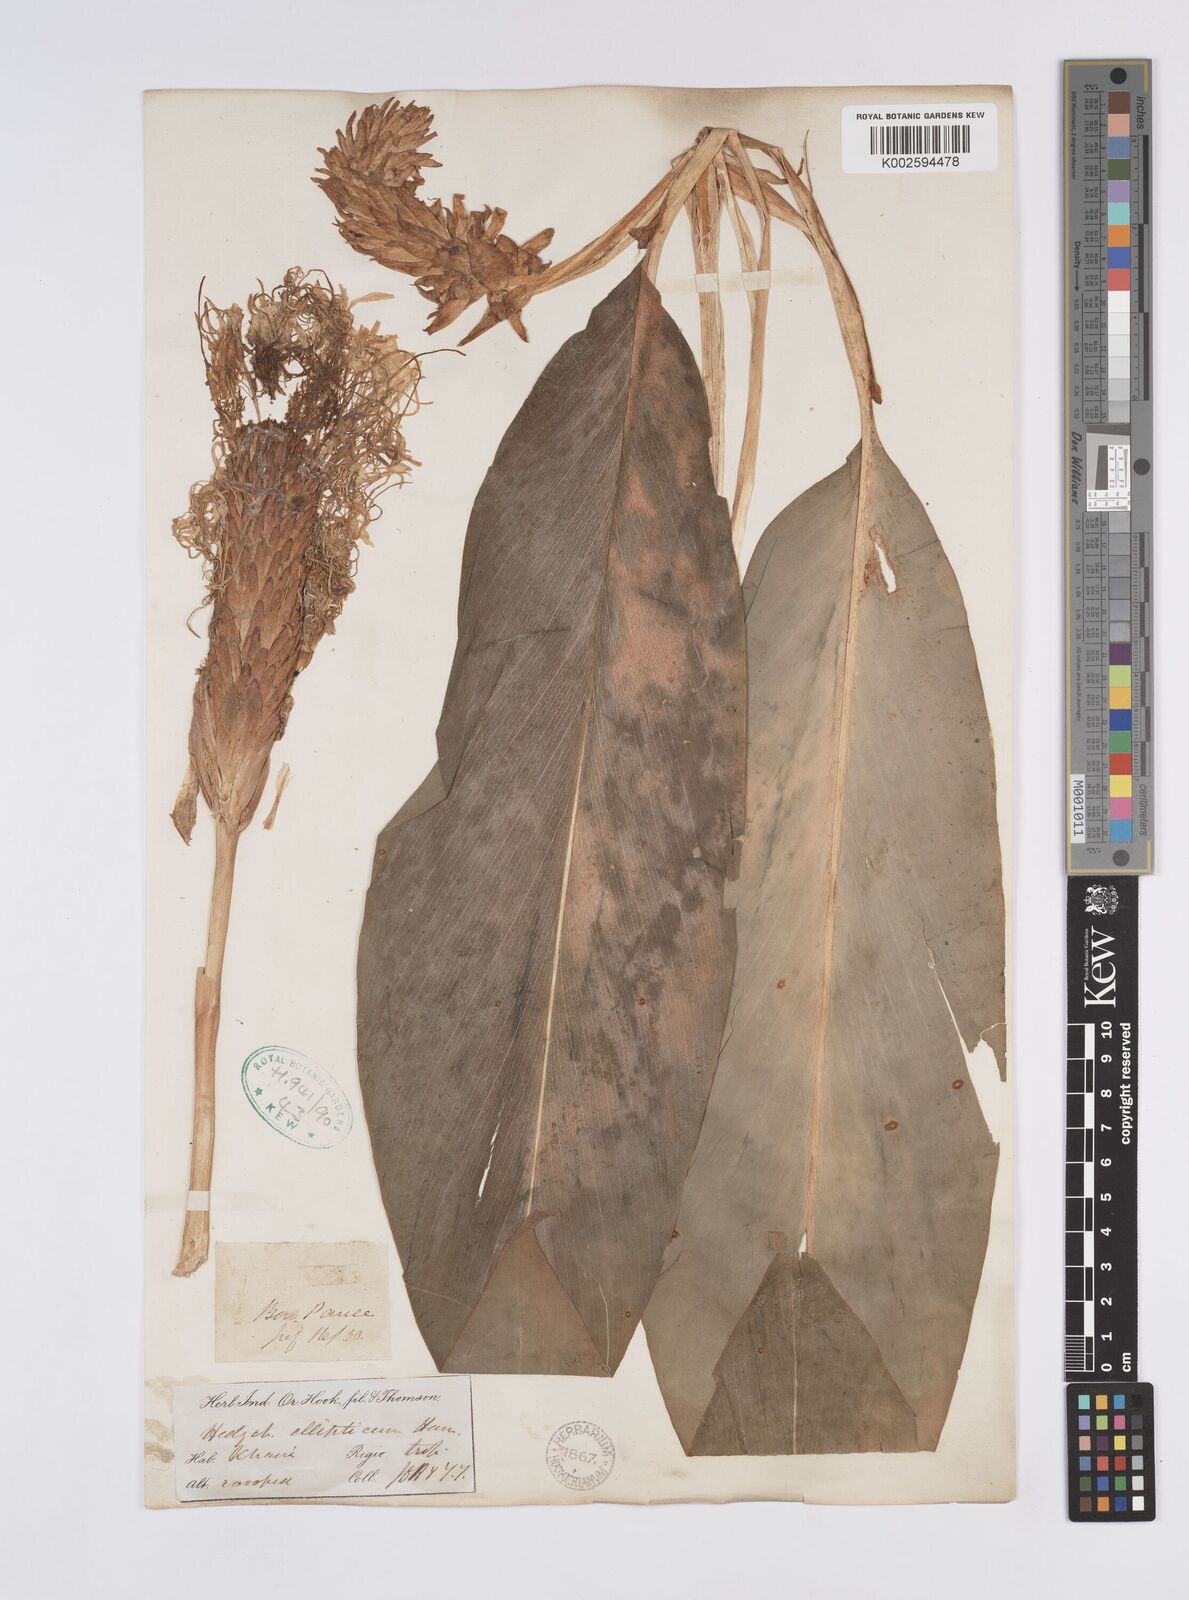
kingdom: Plantae
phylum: Tracheophyta
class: Liliopsida
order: Zingiberales
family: Zingiberaceae
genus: Hedychium
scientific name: Hedychium ellipticum
